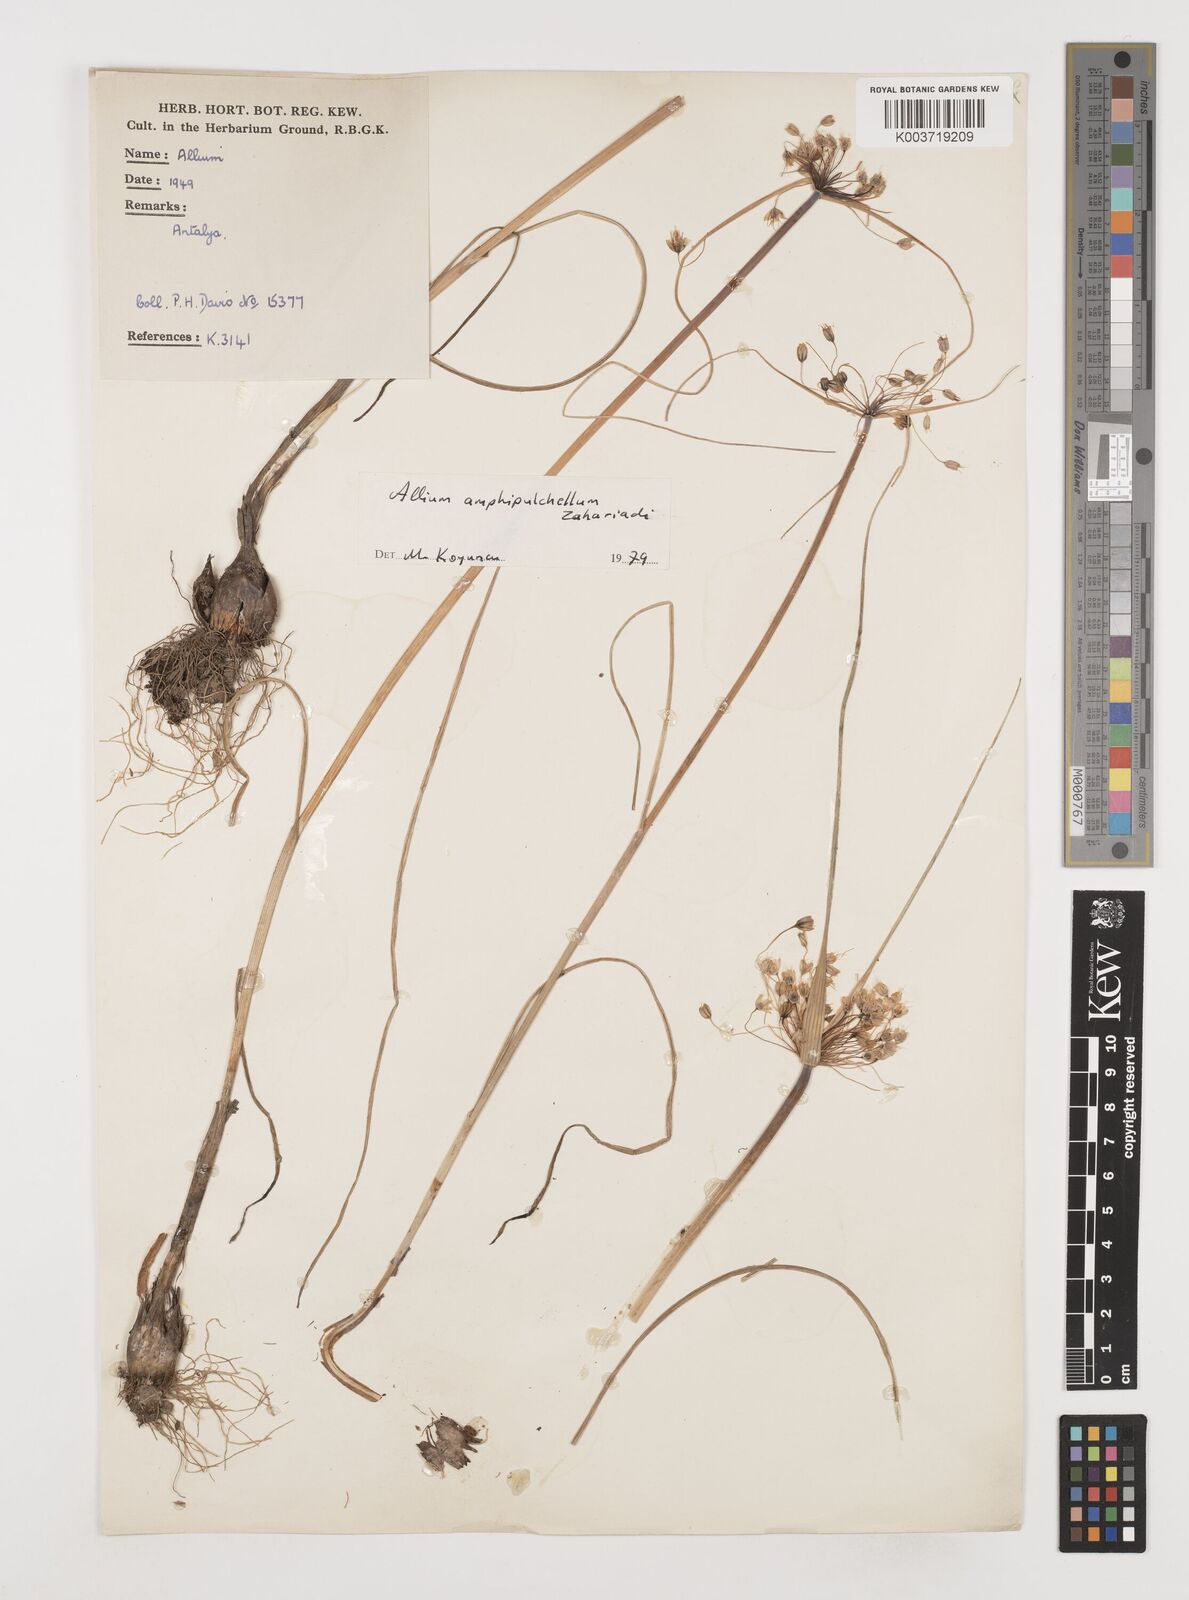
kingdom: Plantae
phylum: Tracheophyta
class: Liliopsida
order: Asparagales
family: Amaryllidaceae
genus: Allium
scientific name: Allium flavum
